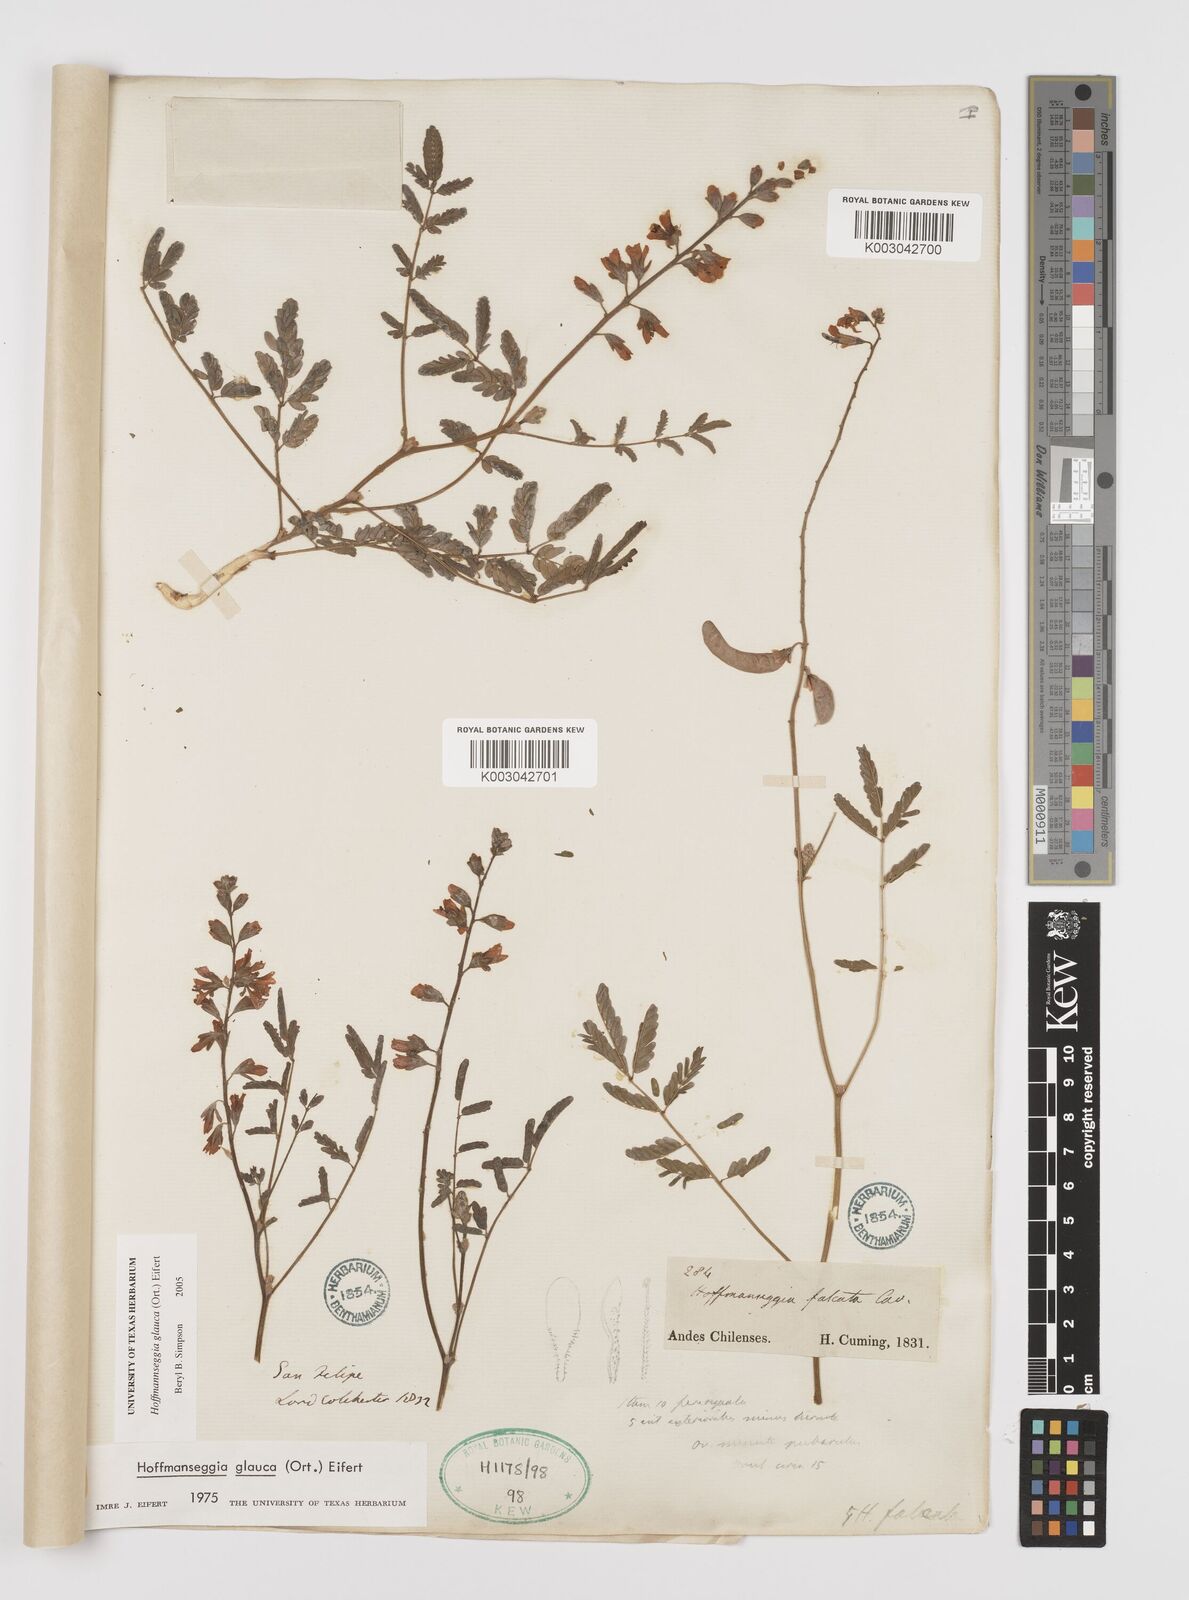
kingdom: Plantae
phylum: Tracheophyta
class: Magnoliopsida
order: Fabales
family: Fabaceae
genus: Hoffmannseggia
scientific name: Hoffmannseggia glauca
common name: Pignut
